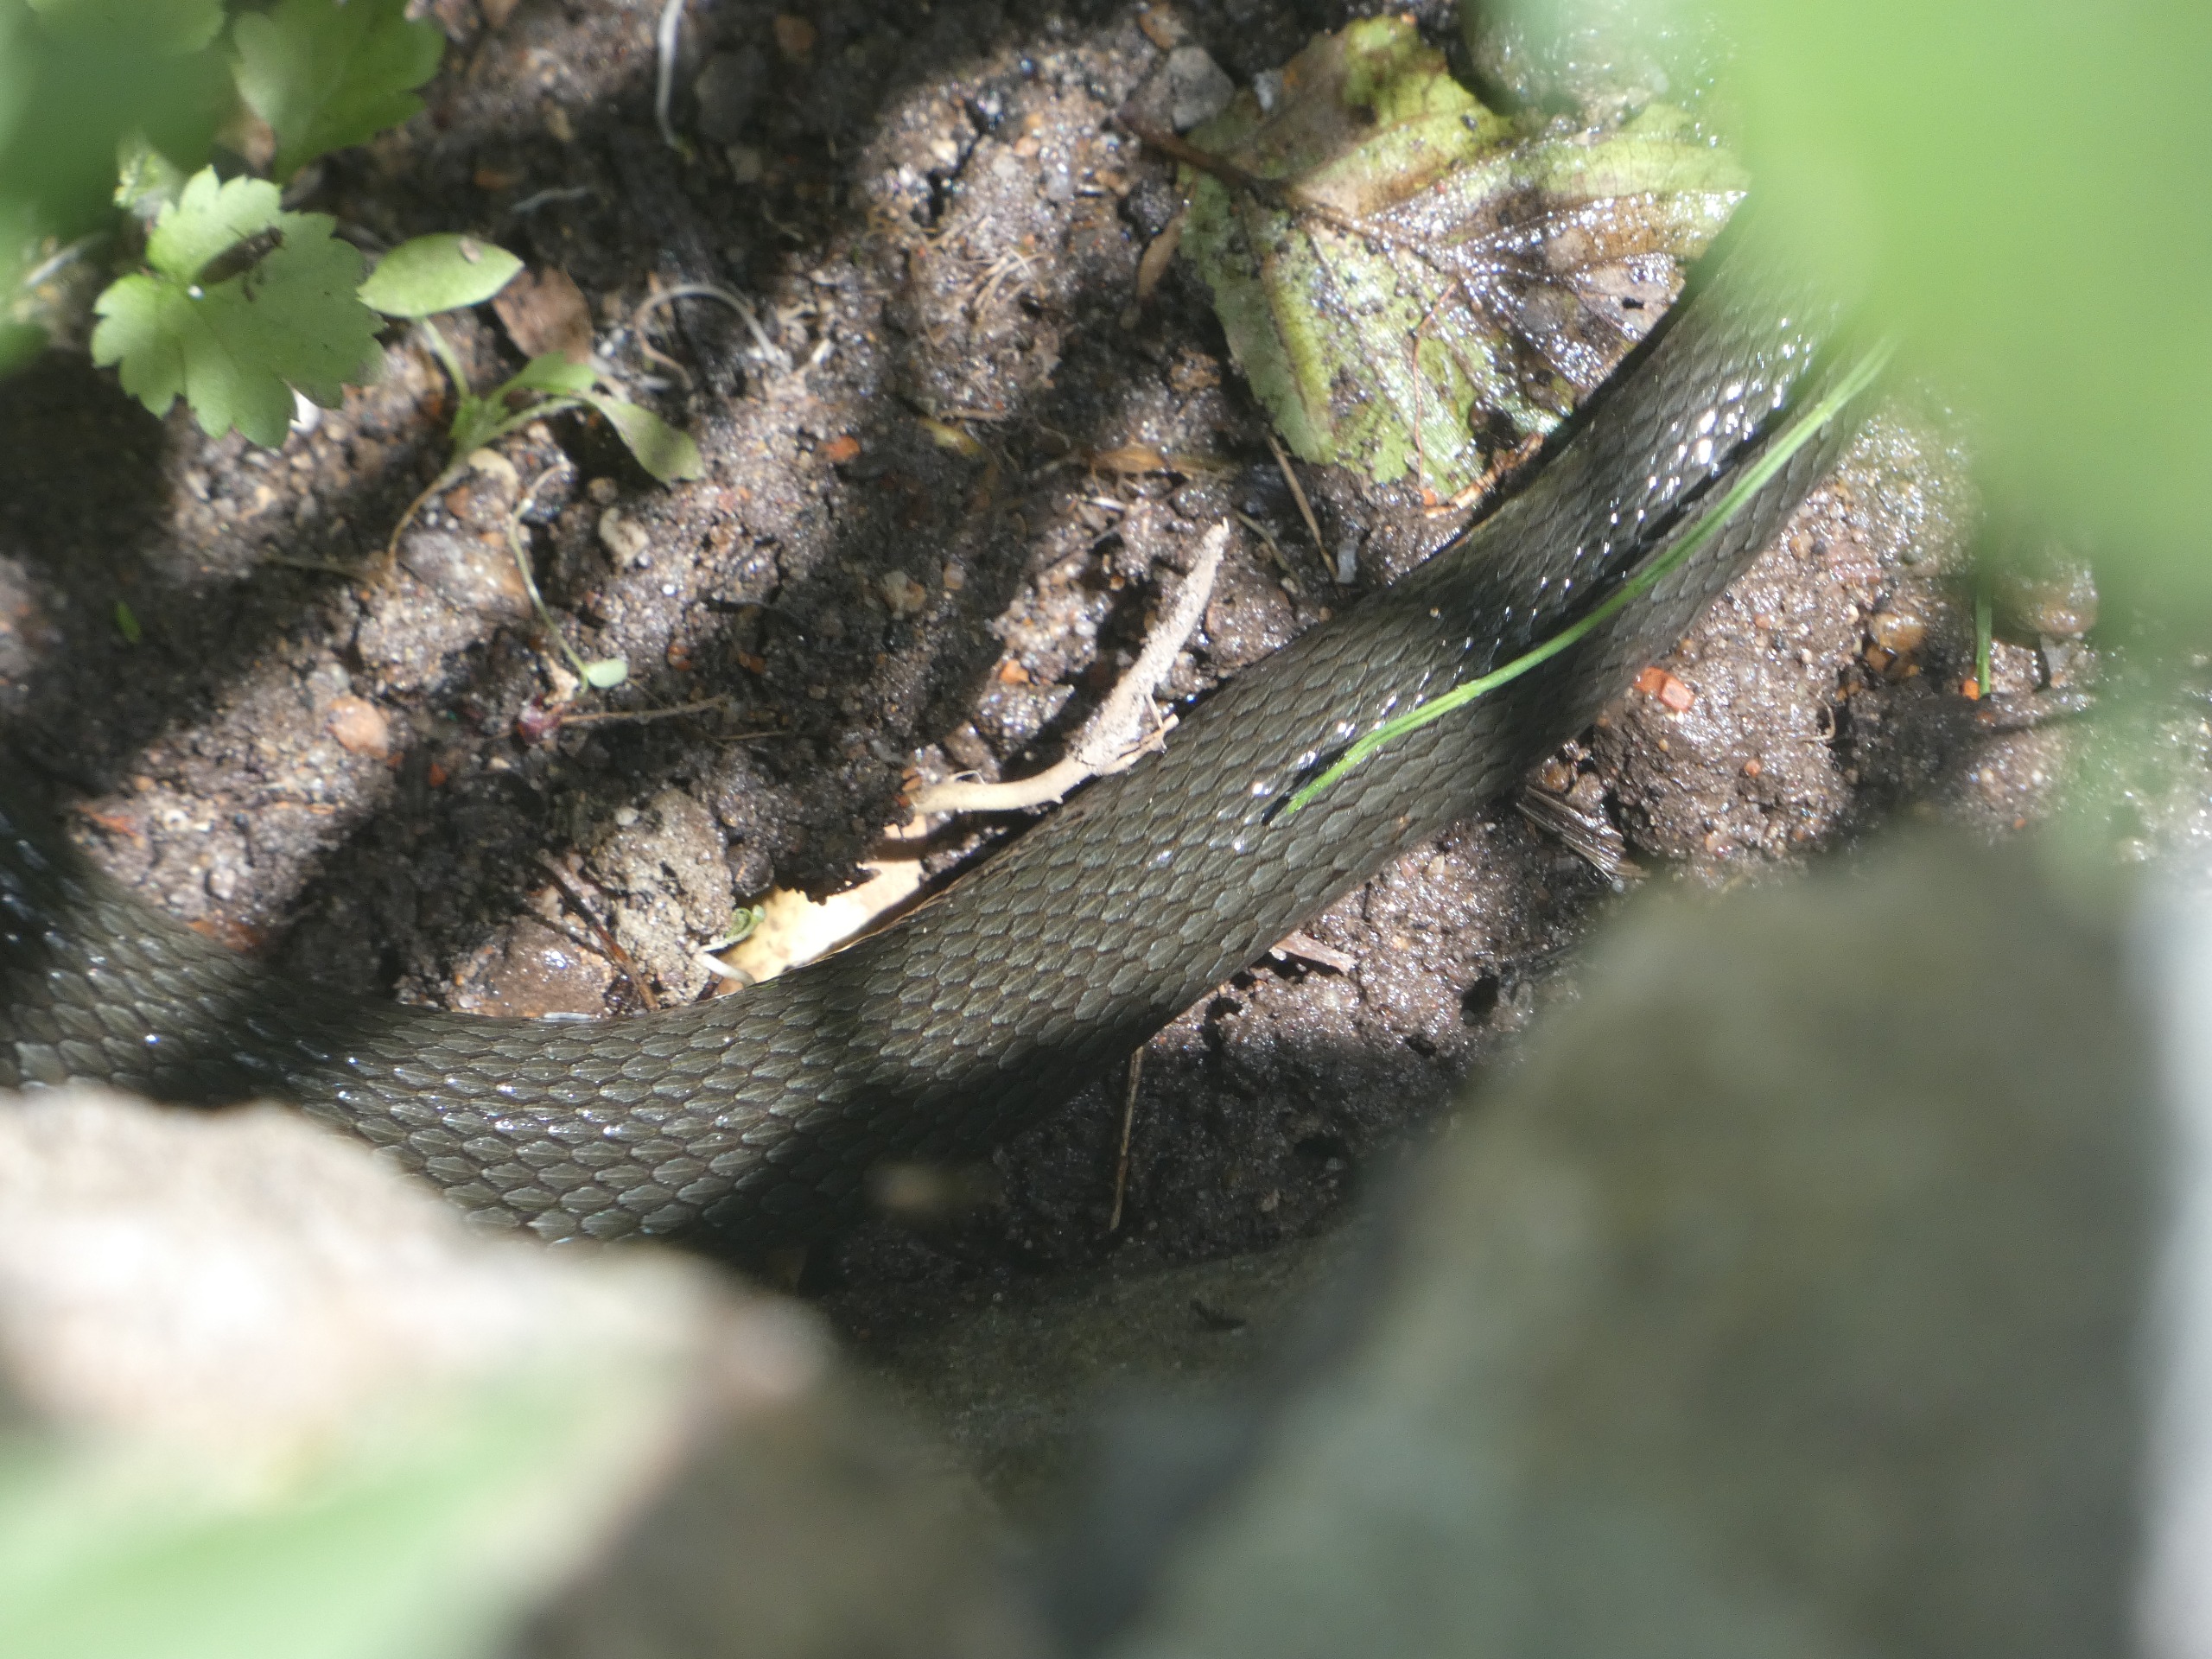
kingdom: Animalia
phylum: Chordata
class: Squamata
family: Colubridae
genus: Natrix
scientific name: Natrix natrix
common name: Snog
